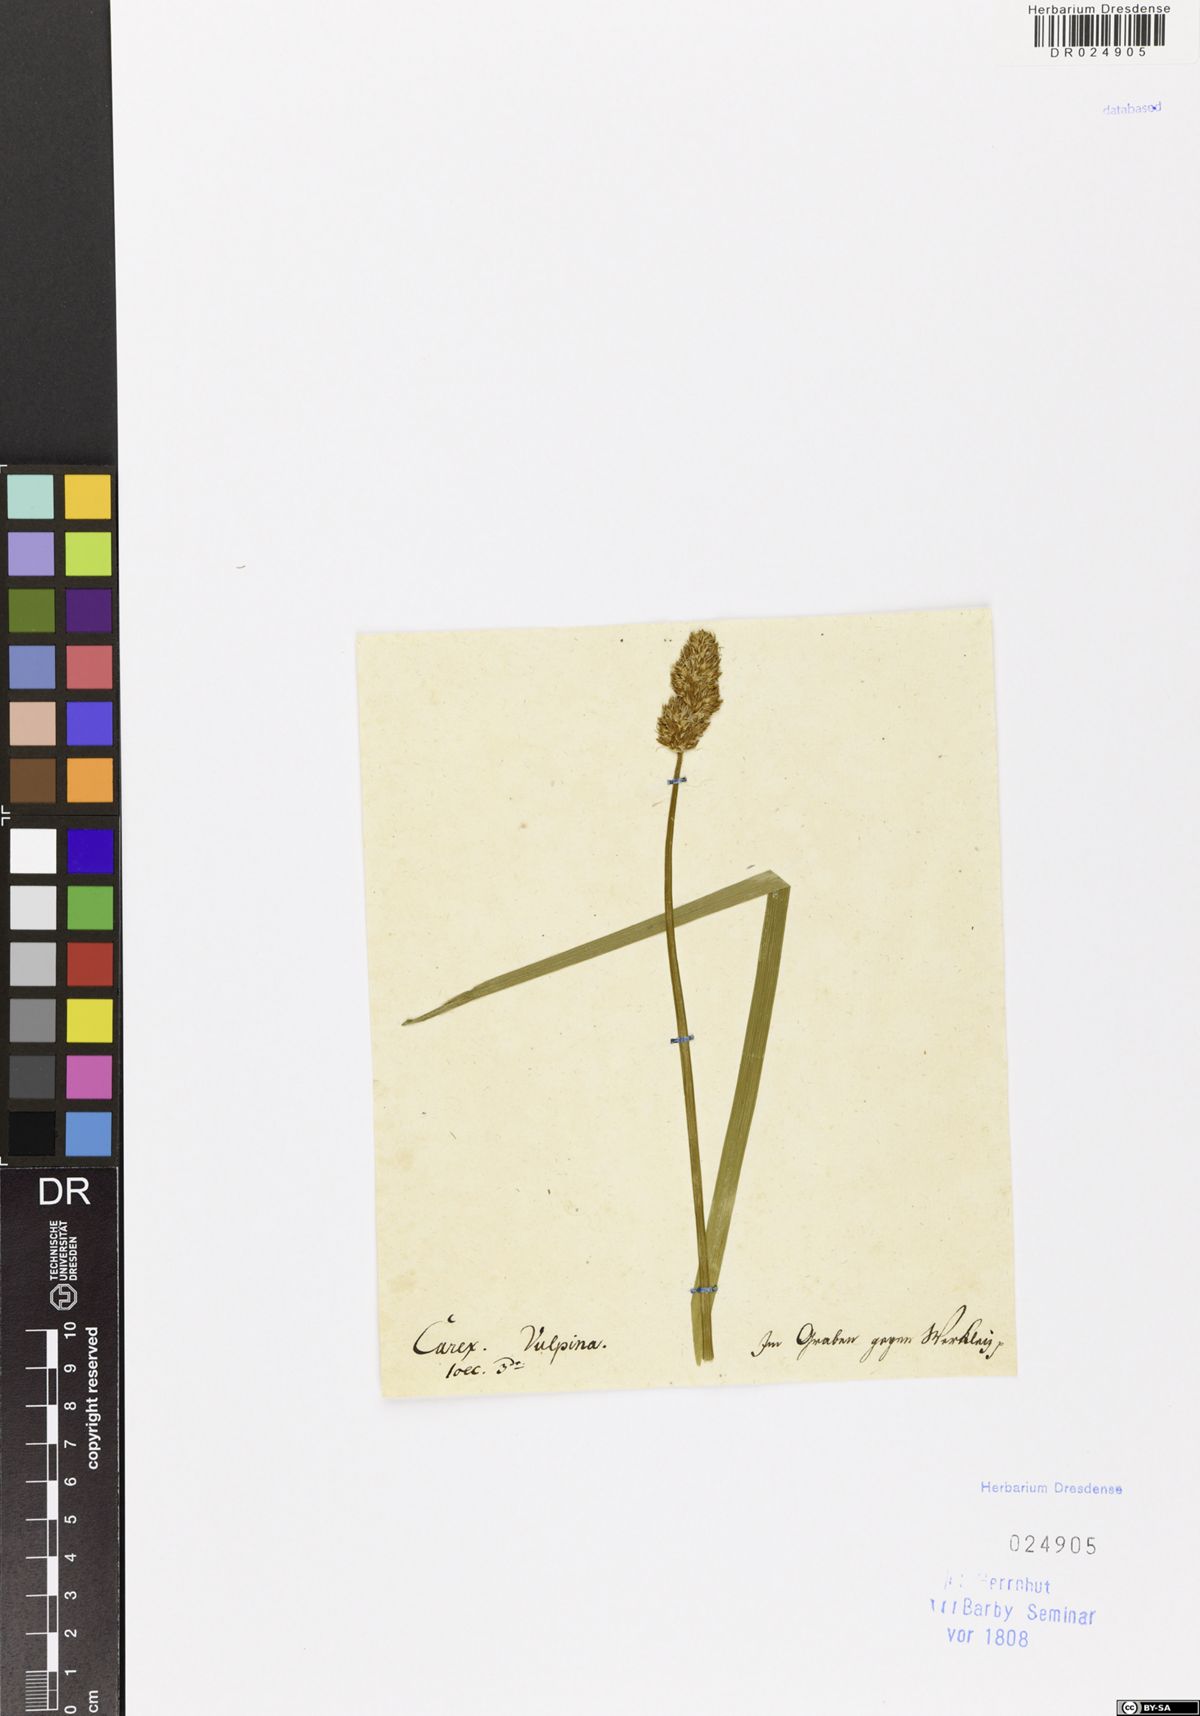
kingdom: Plantae
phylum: Tracheophyta
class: Liliopsida
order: Poales
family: Cyperaceae
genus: Carex
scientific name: Carex vulpina
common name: True fox-sedge
